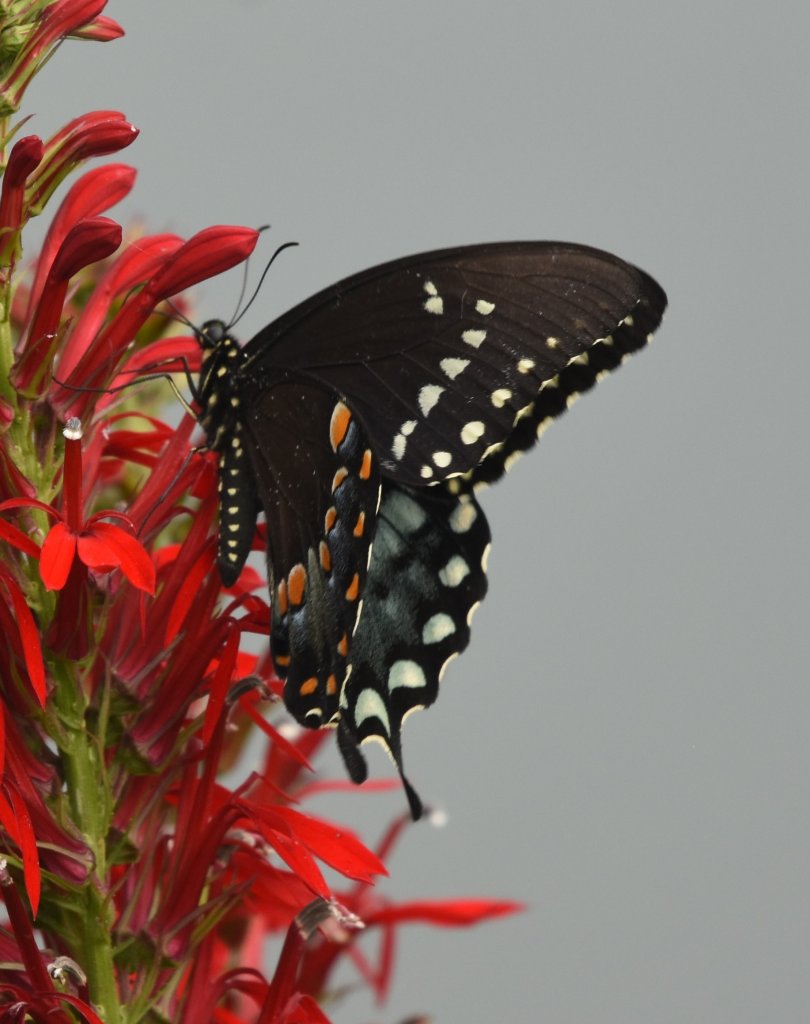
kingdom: Animalia
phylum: Arthropoda
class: Insecta
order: Lepidoptera
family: Papilionidae
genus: Pterourus
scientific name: Pterourus troilus
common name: Spicebush Swallowtail
